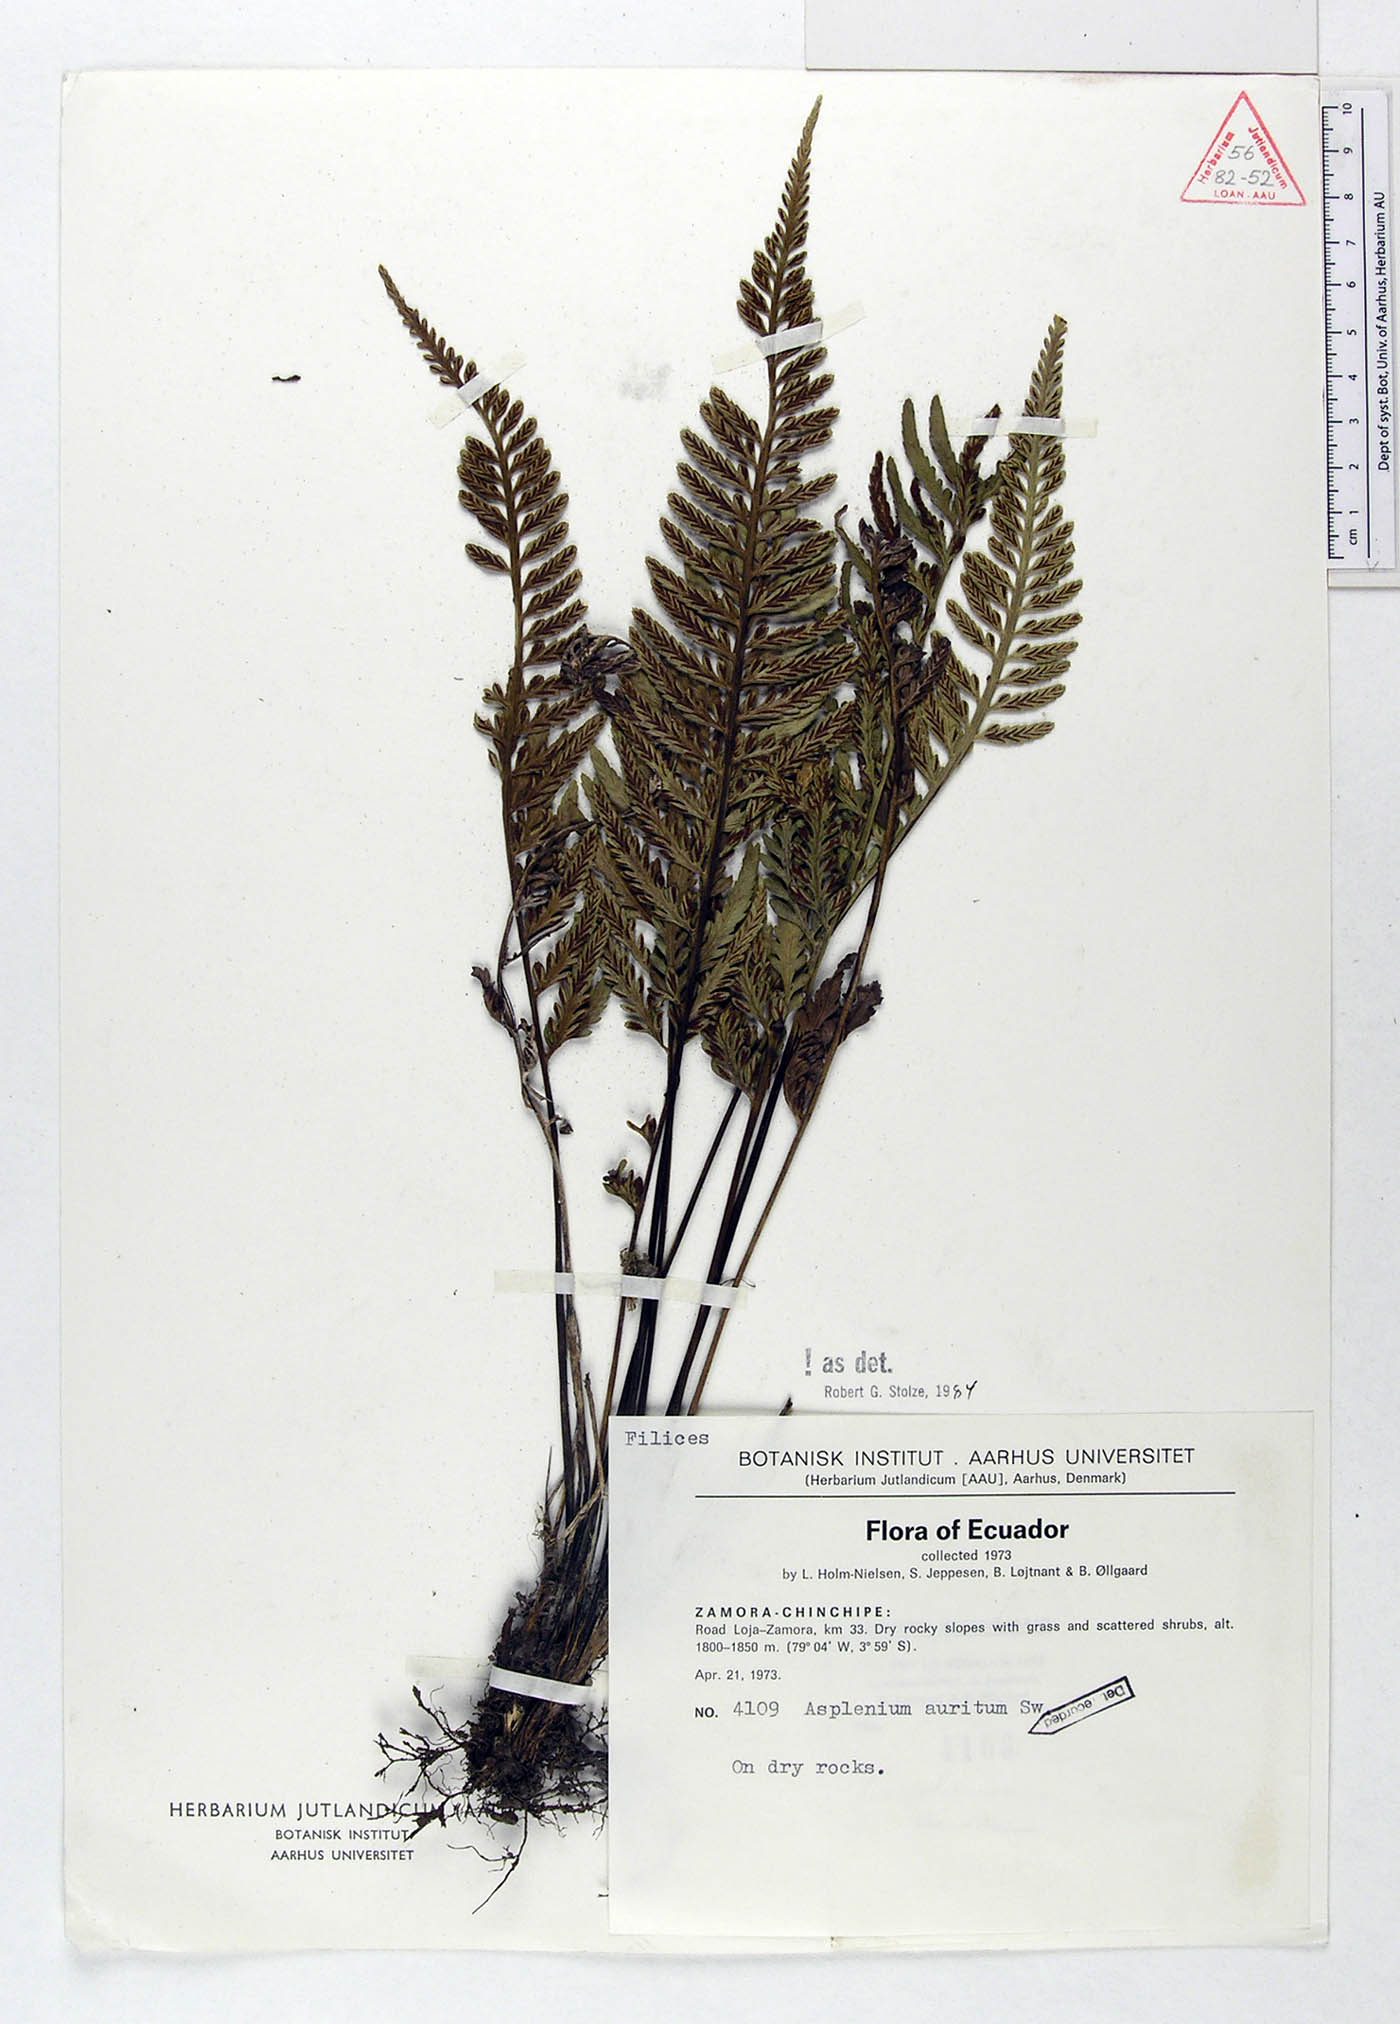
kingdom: Plantae
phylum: Tracheophyta
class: Polypodiopsida
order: Polypodiales
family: Aspleniaceae
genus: Asplenium
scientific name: Asplenium auritum
